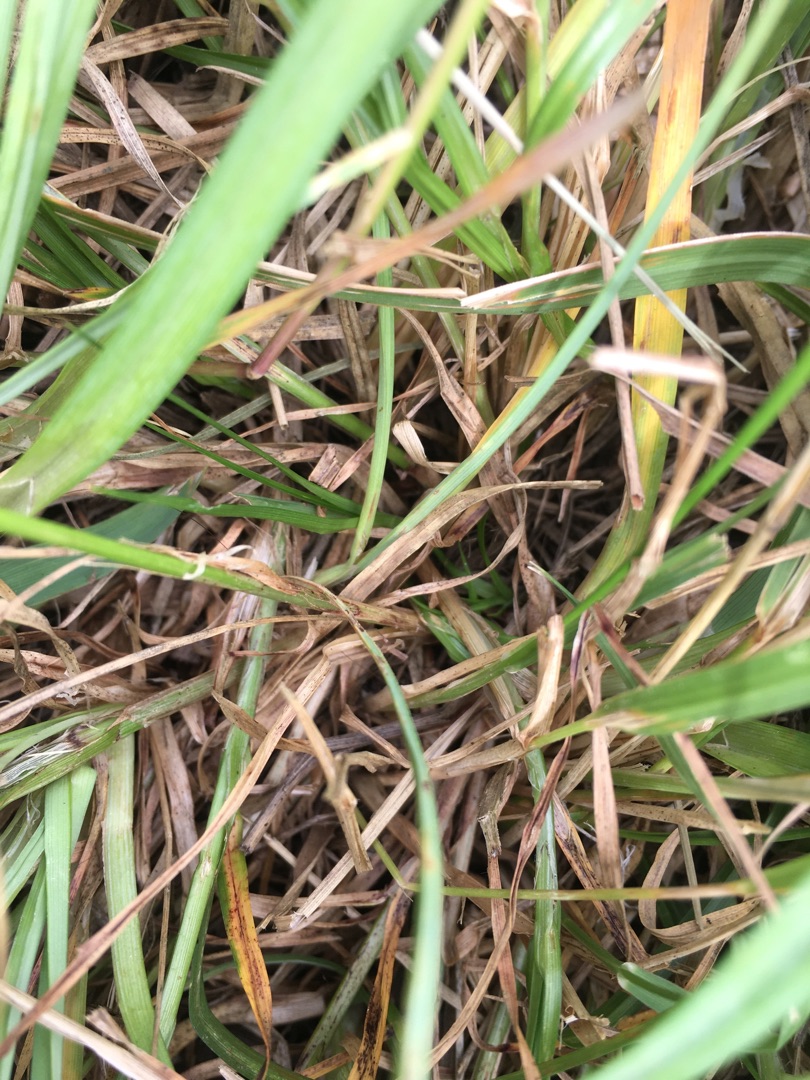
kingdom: Plantae
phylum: Tracheophyta
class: Liliopsida
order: Poales
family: Cyperaceae
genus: Carex
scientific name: Carex spicata
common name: Spidskapslet star
